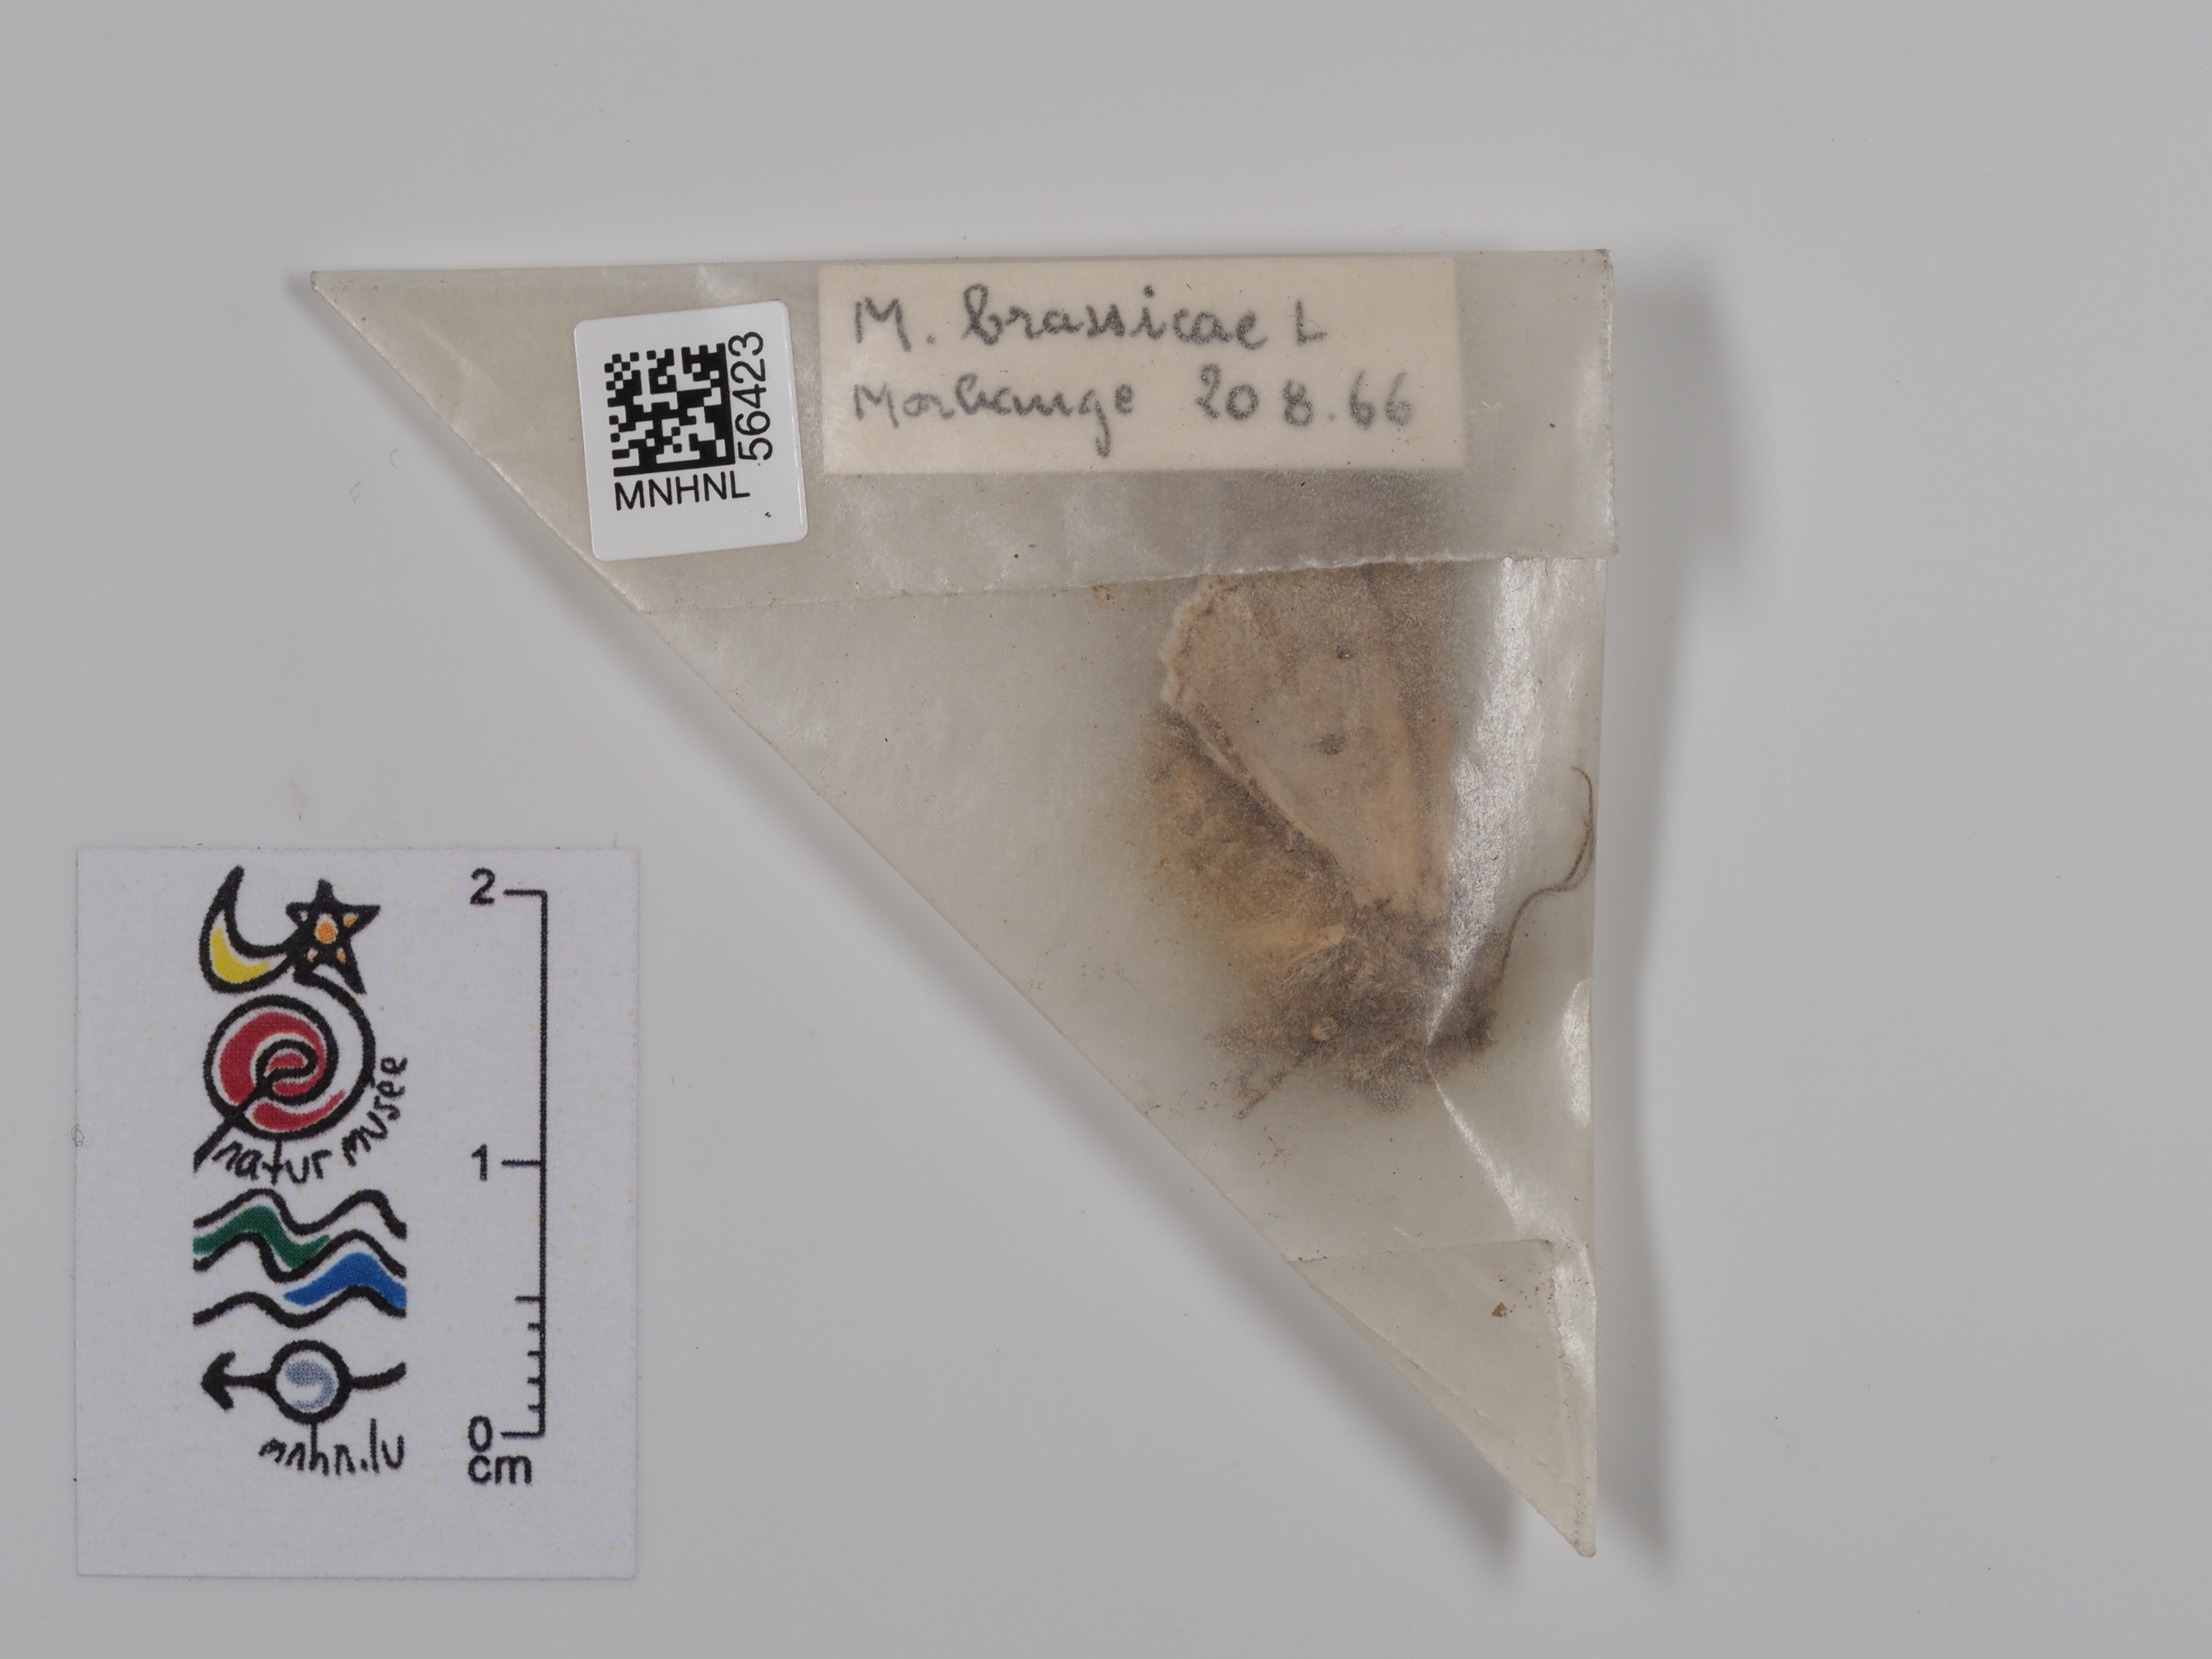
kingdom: Animalia
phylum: Arthropoda
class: Insecta
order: Lepidoptera
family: Noctuidae
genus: Mamestra
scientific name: Mamestra brassicae
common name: Cabbage moth
